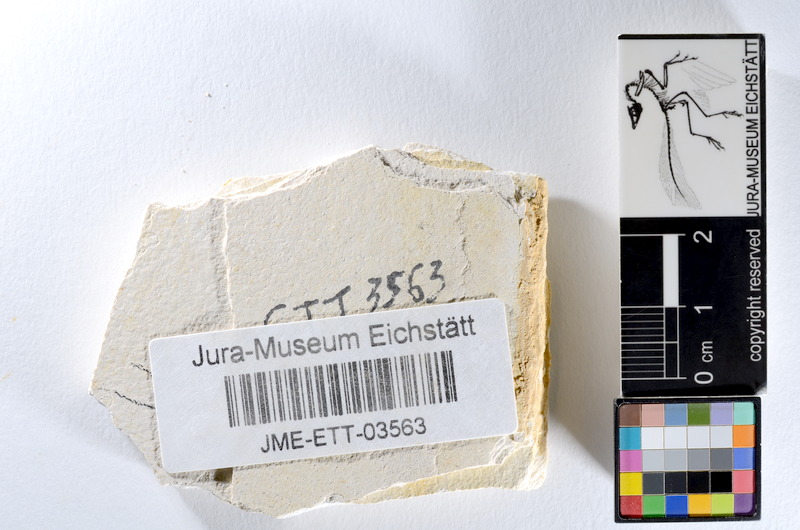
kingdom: Animalia
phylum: Chordata
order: Salmoniformes
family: Orthogonikleithridae
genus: Orthogonikleithrus
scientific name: Orthogonikleithrus hoelli
